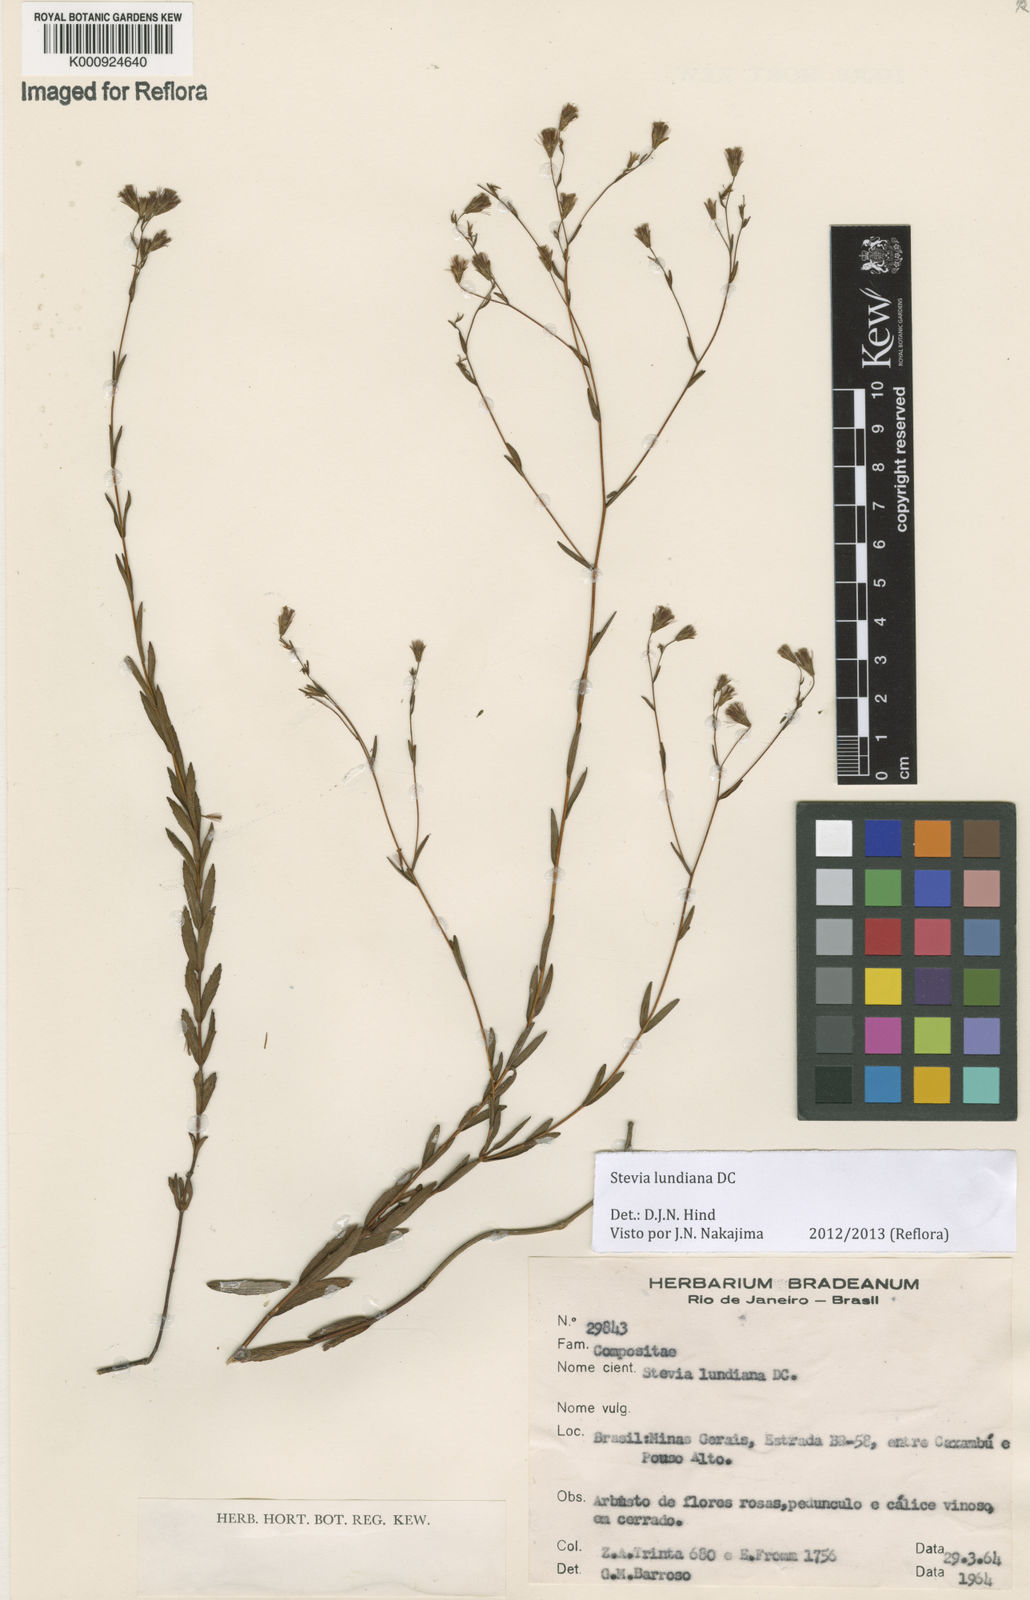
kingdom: Plantae
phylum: Tracheophyta
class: Magnoliopsida
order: Asterales
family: Asteraceae
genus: Stevia
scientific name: Stevia lundiana
